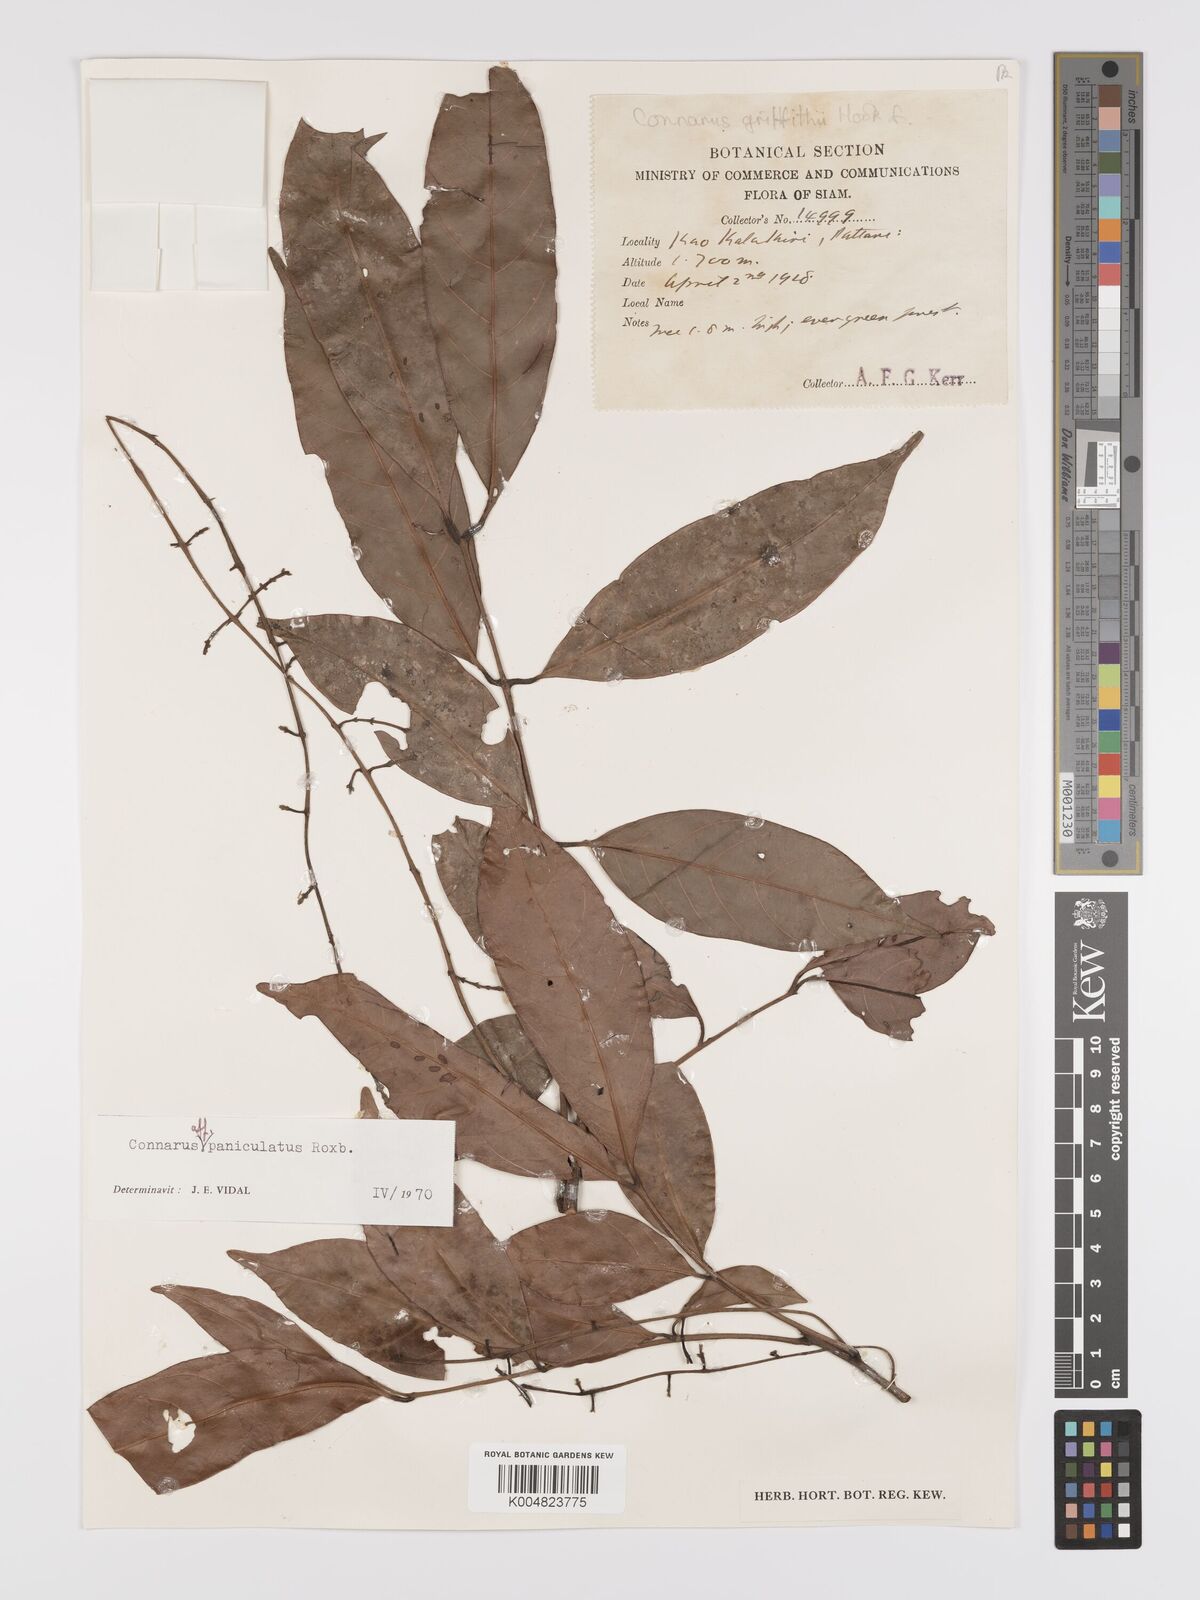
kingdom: Plantae
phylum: Tracheophyta
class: Magnoliopsida
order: Oxalidales
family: Connaraceae
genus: Connarus
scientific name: Connarus paniculatus
